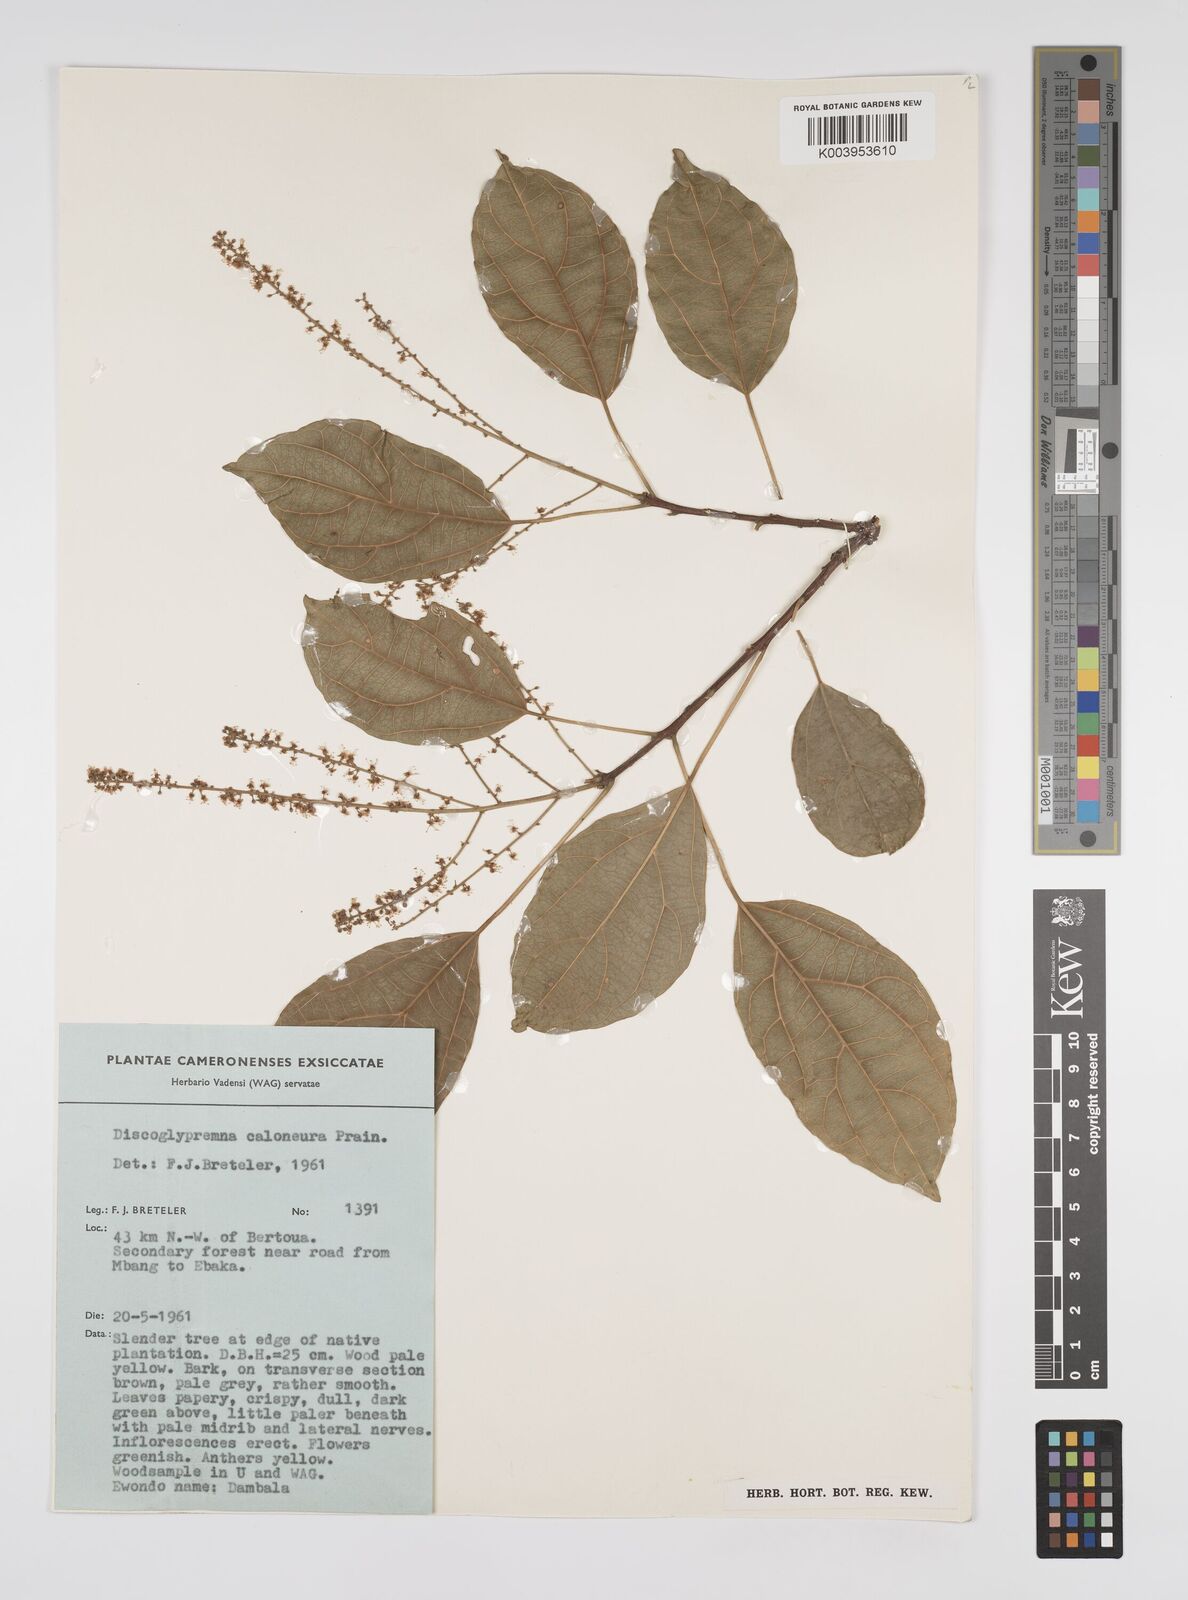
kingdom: Plantae
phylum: Tracheophyta
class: Magnoliopsida
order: Malpighiales
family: Euphorbiaceae
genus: Discoglypremna
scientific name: Discoglypremna caloneura
